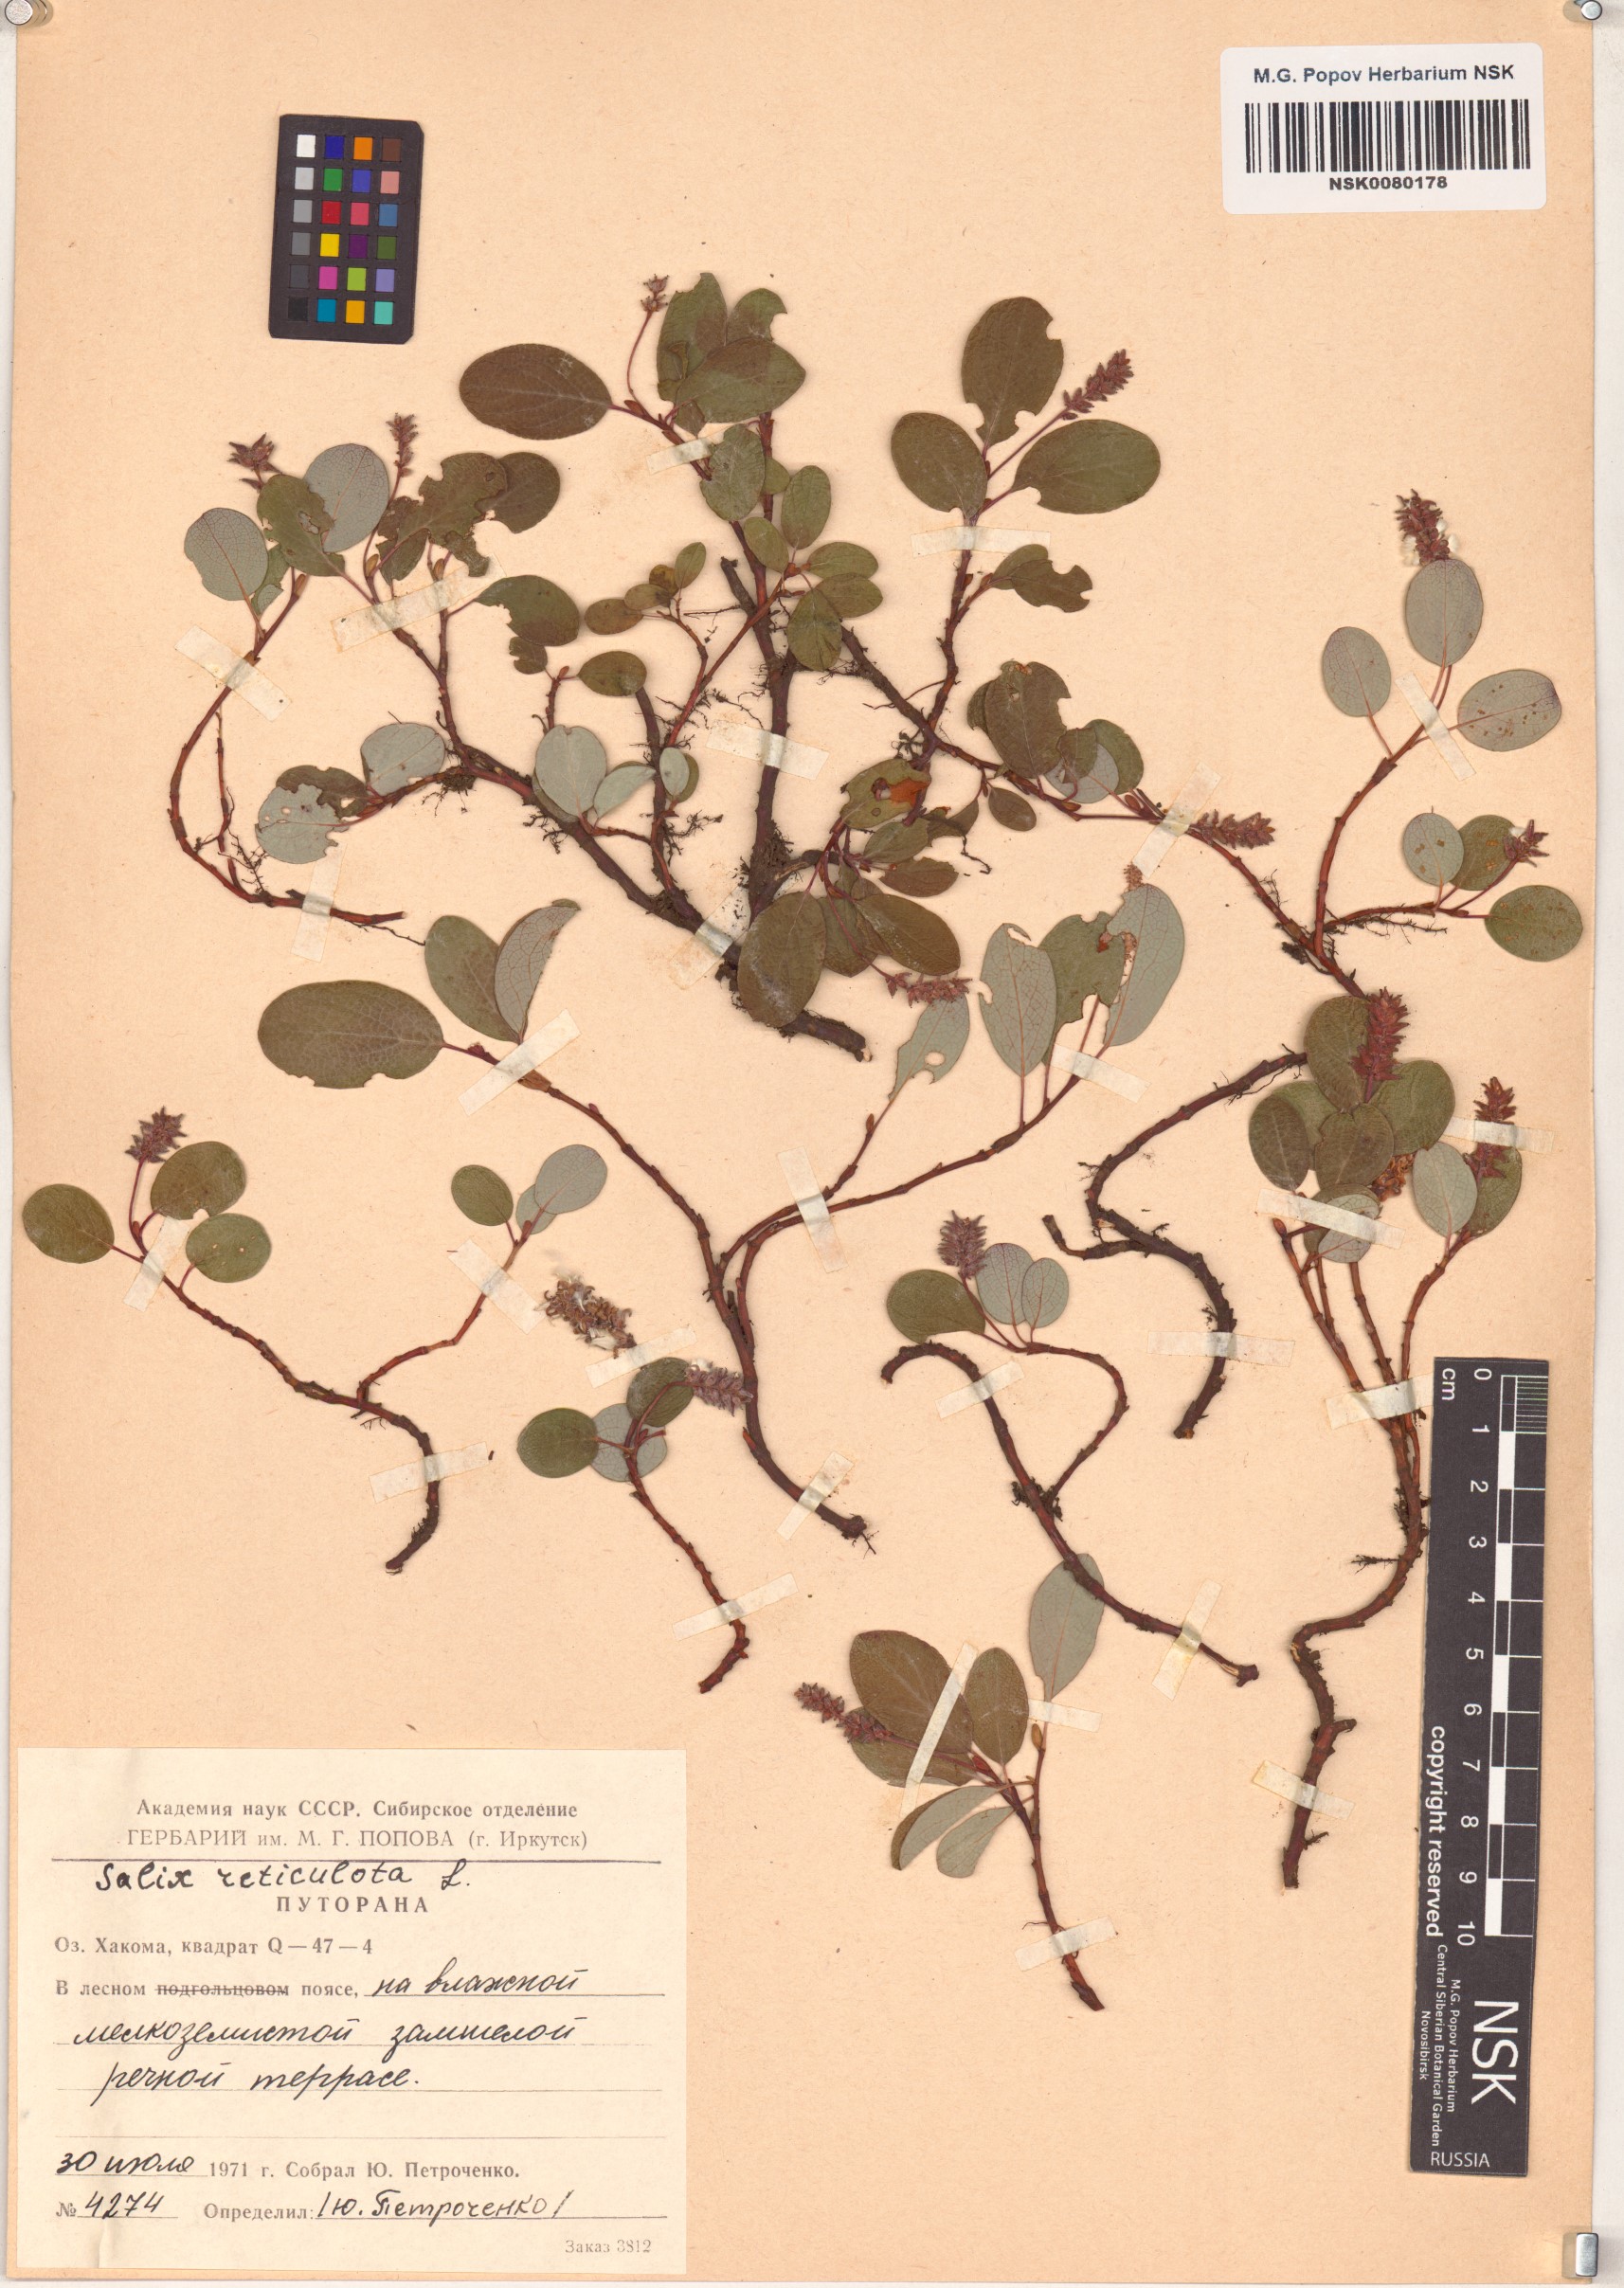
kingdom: Plantae
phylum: Tracheophyta
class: Magnoliopsida
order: Malpighiales
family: Salicaceae
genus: Salix
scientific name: Salix reticulata
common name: Net-leaved willow
